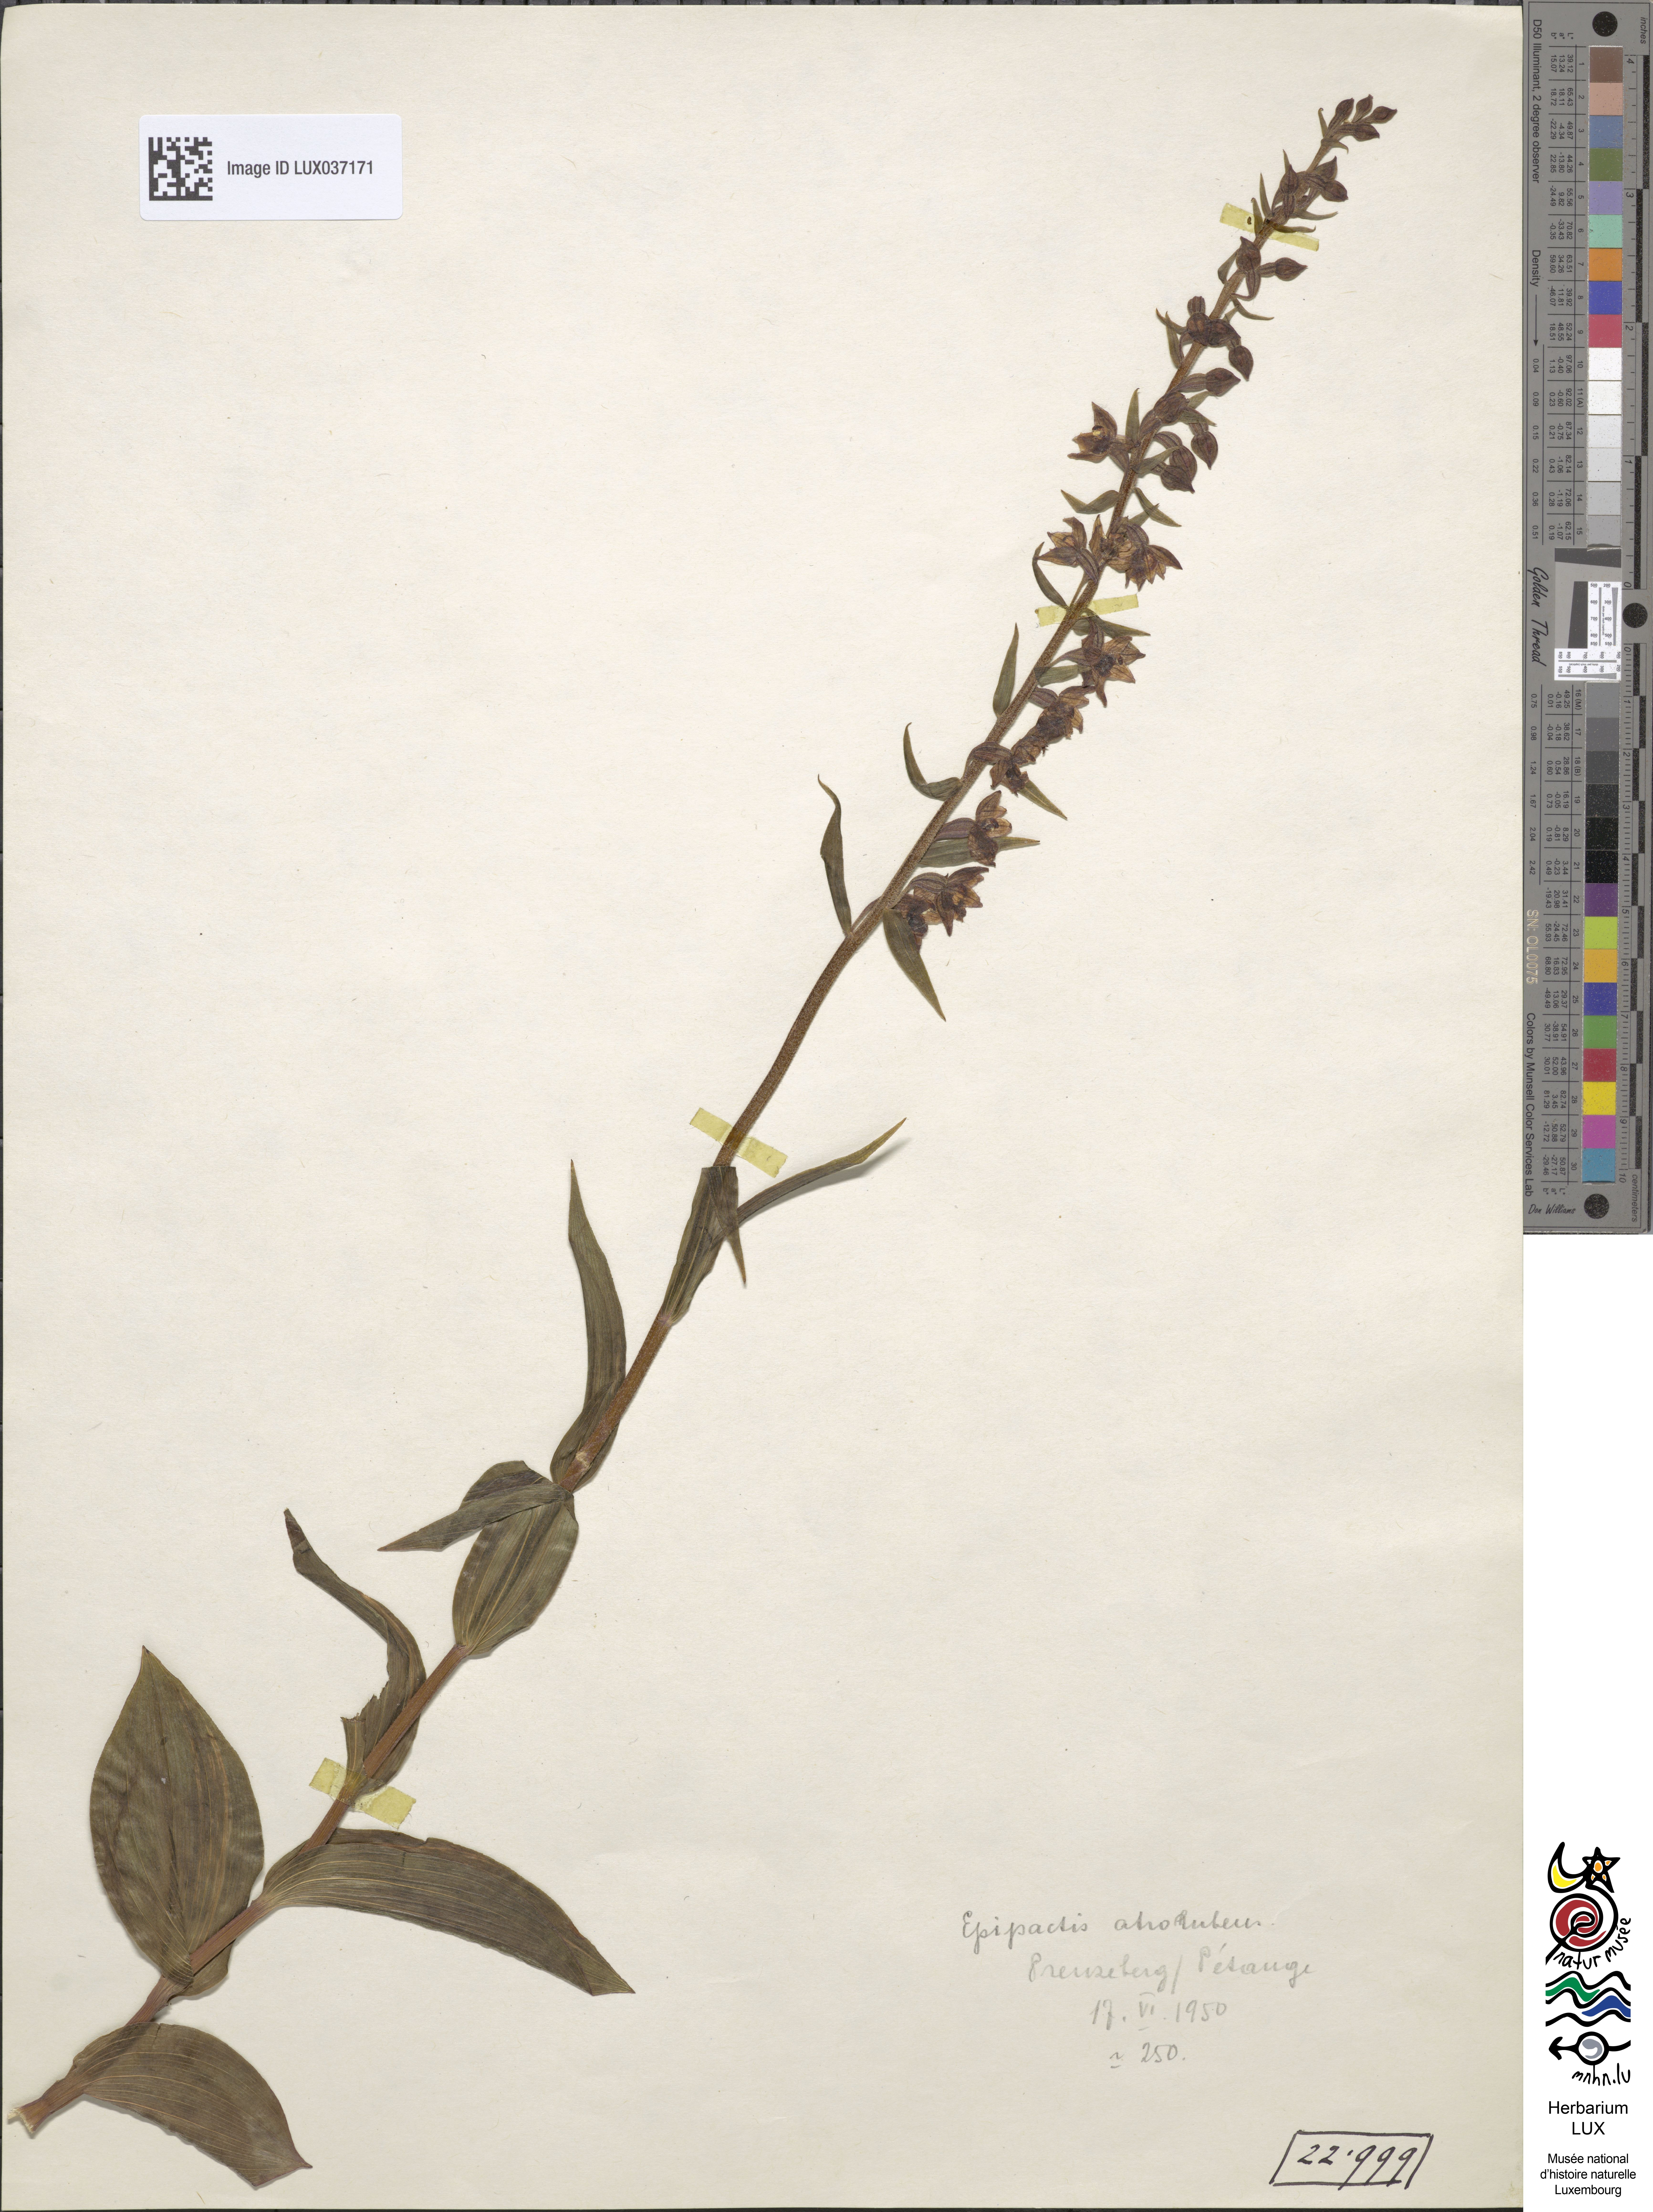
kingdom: Plantae
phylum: Tracheophyta
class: Liliopsida
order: Asparagales
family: Orchidaceae
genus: Epipactis
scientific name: Epipactis atrorubens
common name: Dark-red helleborine
